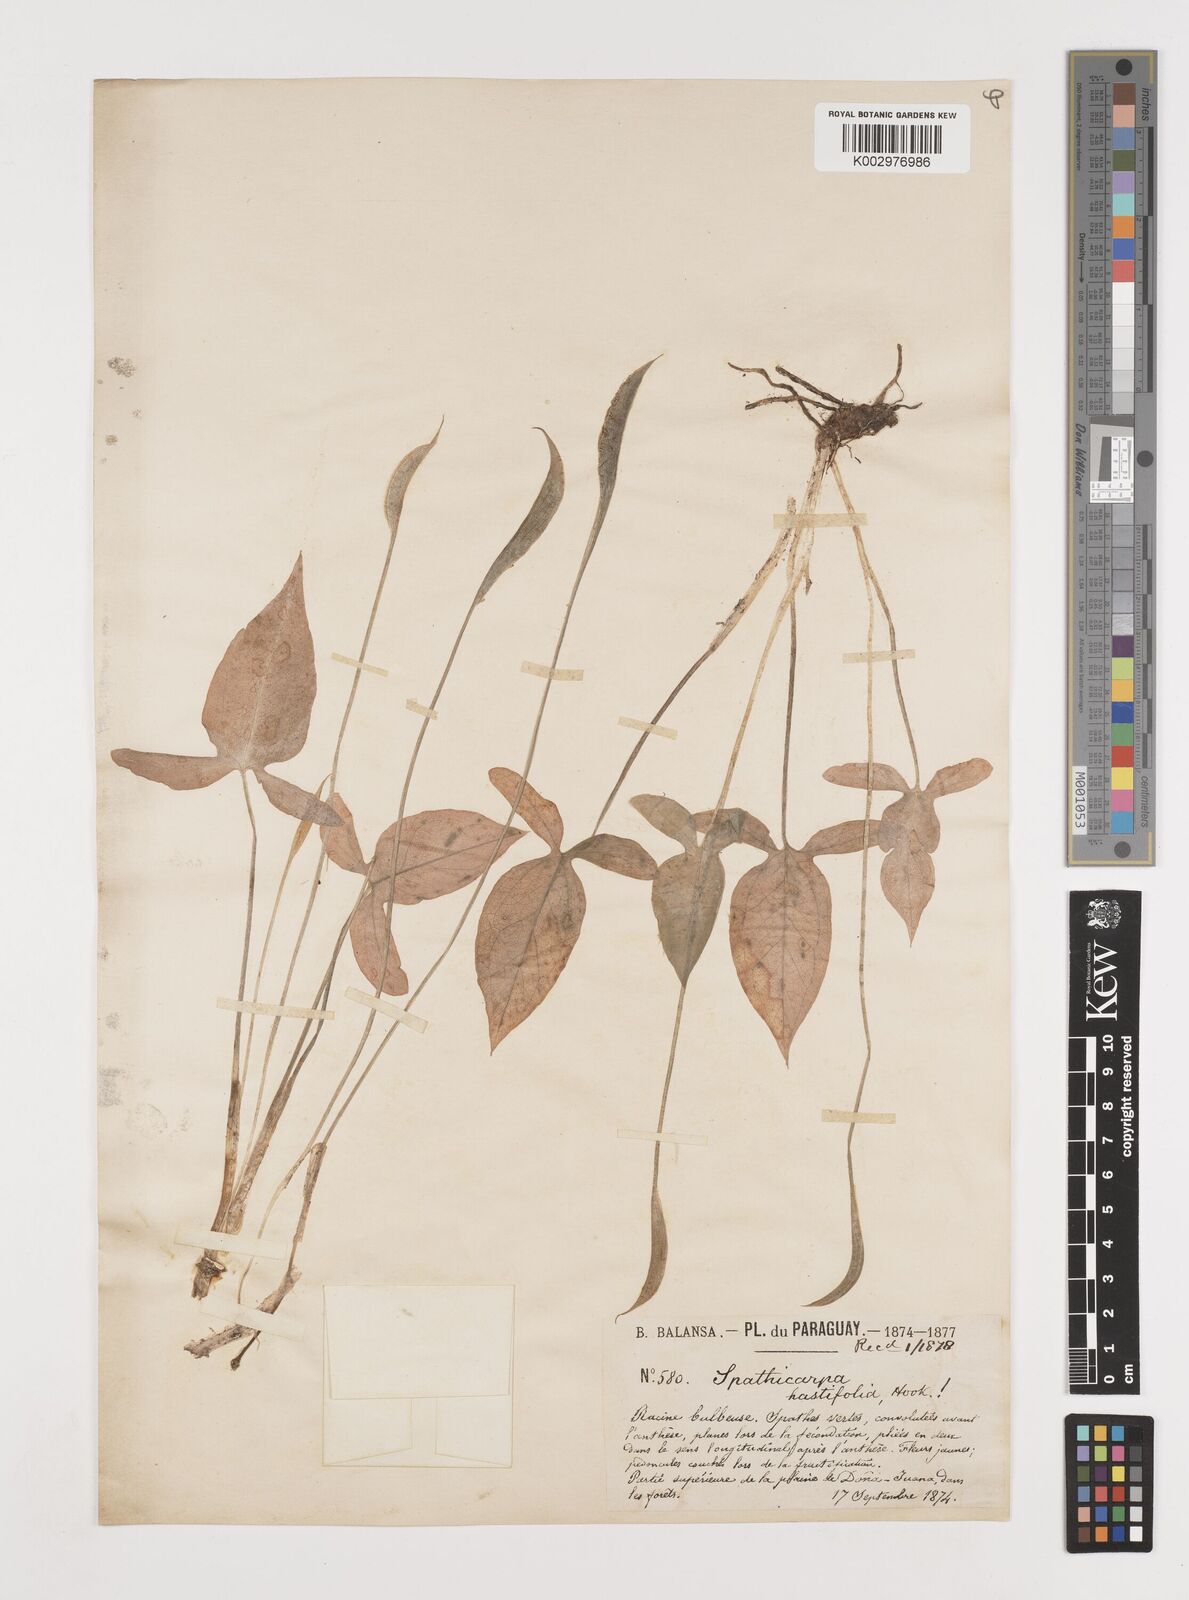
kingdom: Plantae
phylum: Tracheophyta
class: Liliopsida
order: Alismatales
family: Araceae
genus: Spathicarpa
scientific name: Spathicarpa hastifolia
